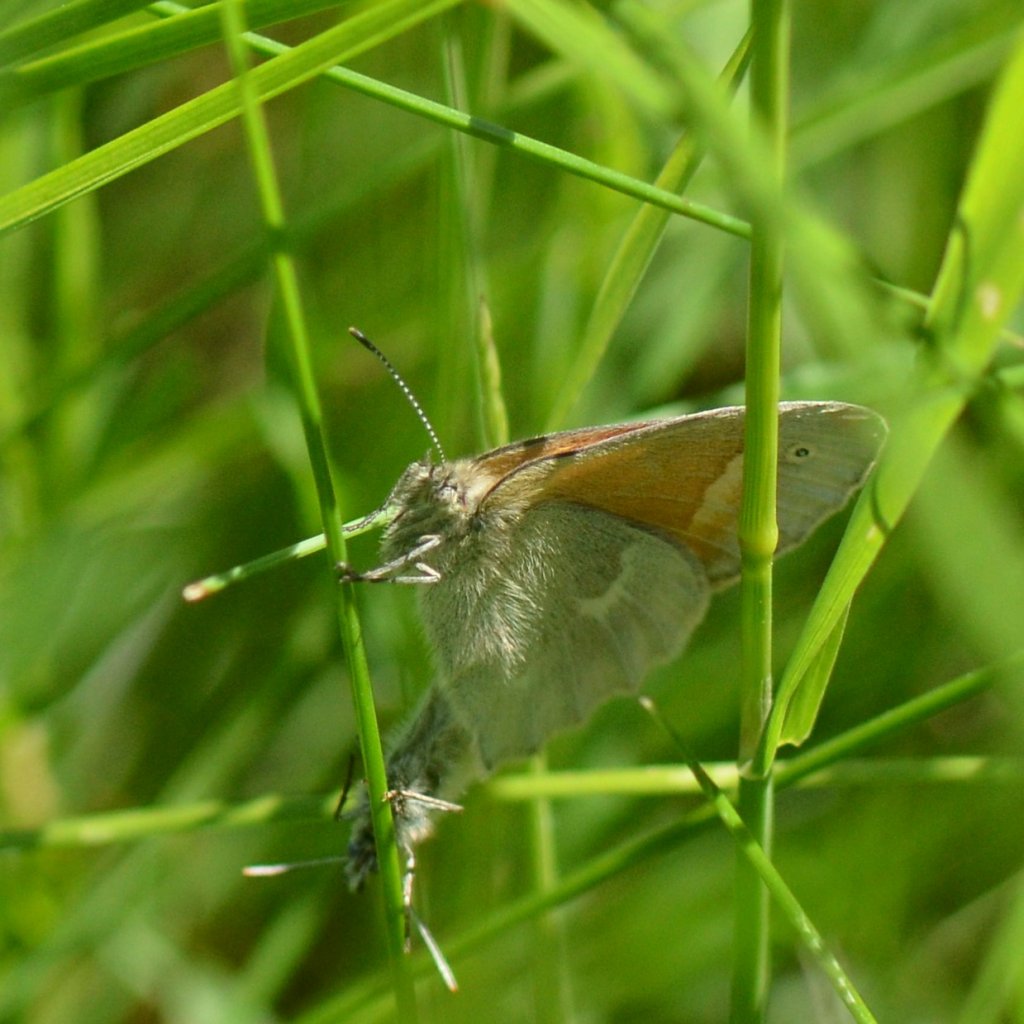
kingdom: Animalia
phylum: Arthropoda
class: Insecta
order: Lepidoptera
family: Nymphalidae
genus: Coenonympha
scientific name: Coenonympha tullia
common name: Large Heath
